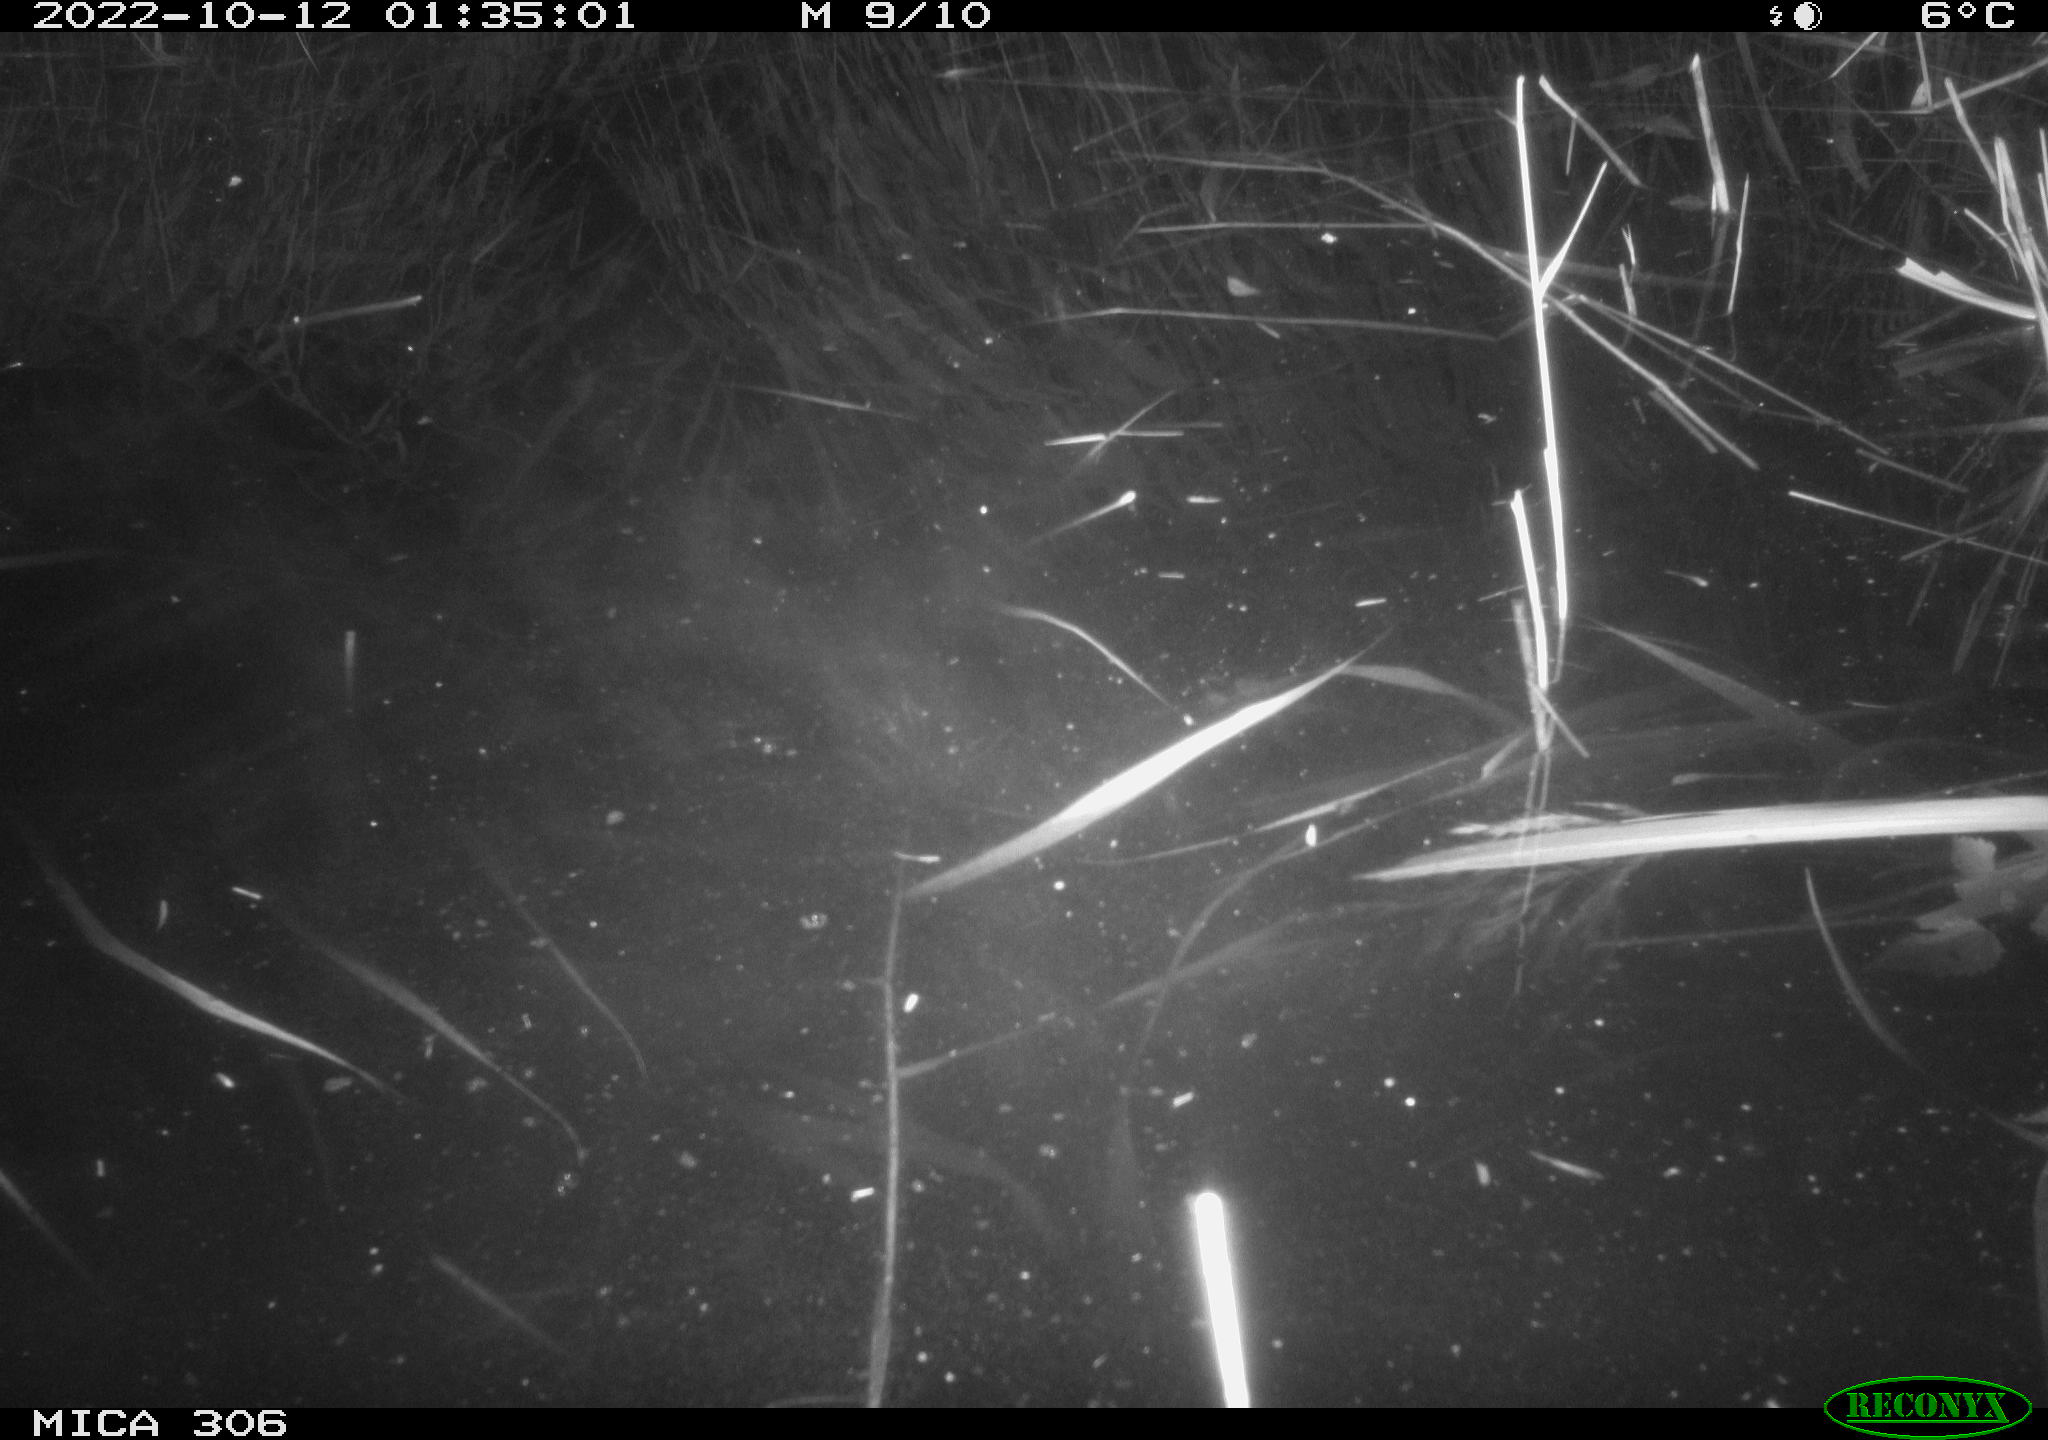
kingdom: Animalia
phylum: Chordata
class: Mammalia
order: Rodentia
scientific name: Rodentia
